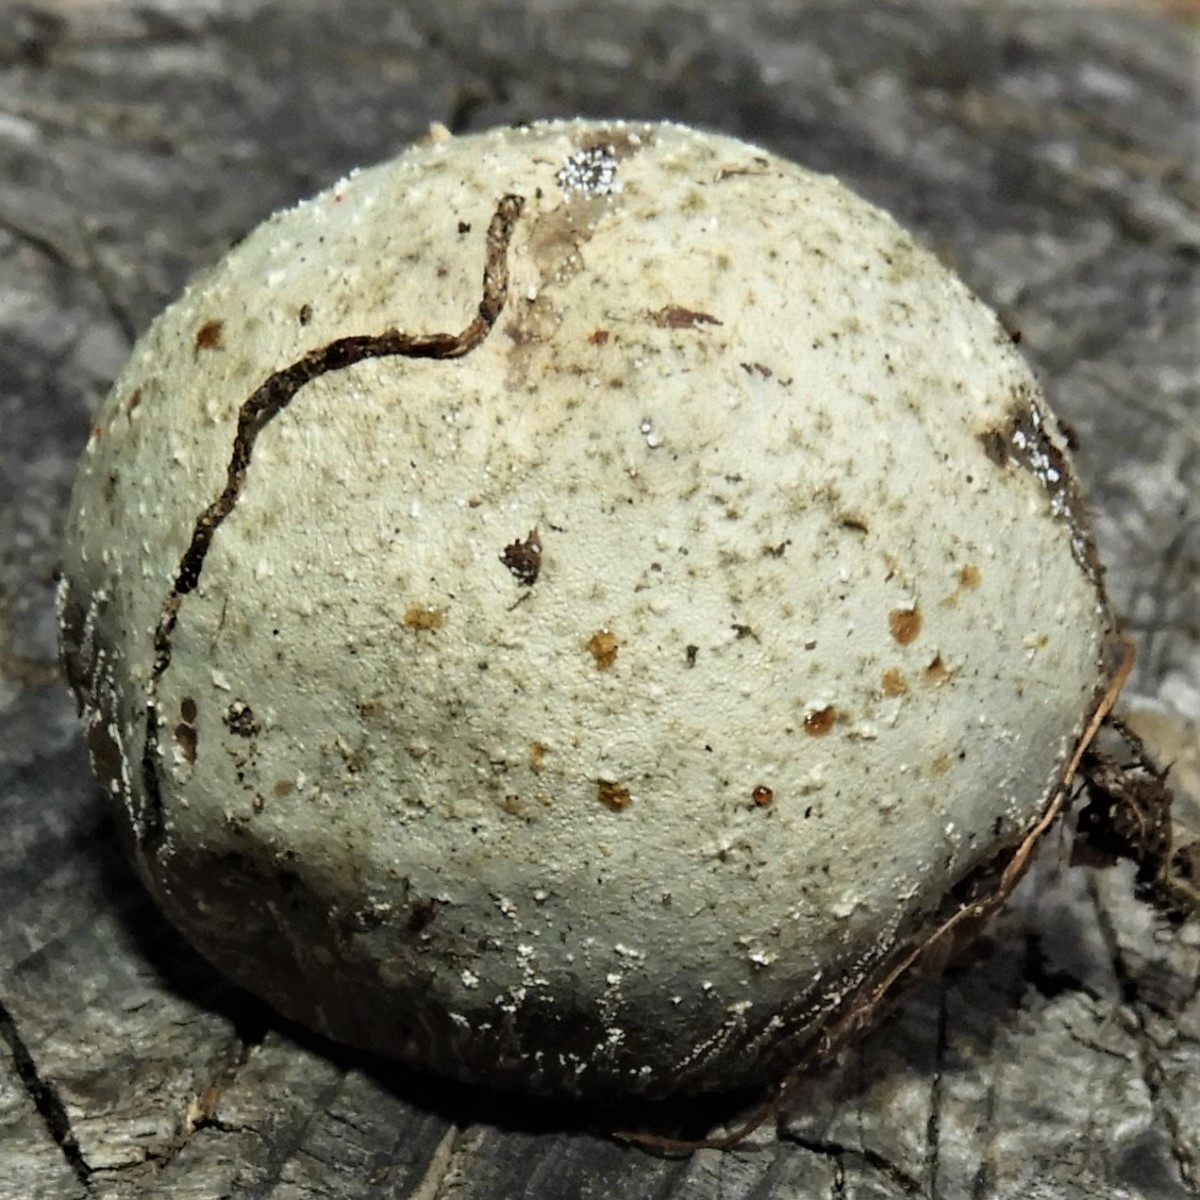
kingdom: Fungi
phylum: Basidiomycota
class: Agaricomycetes
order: Agaricales
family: Lycoperdaceae
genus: Bovista
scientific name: Bovista
